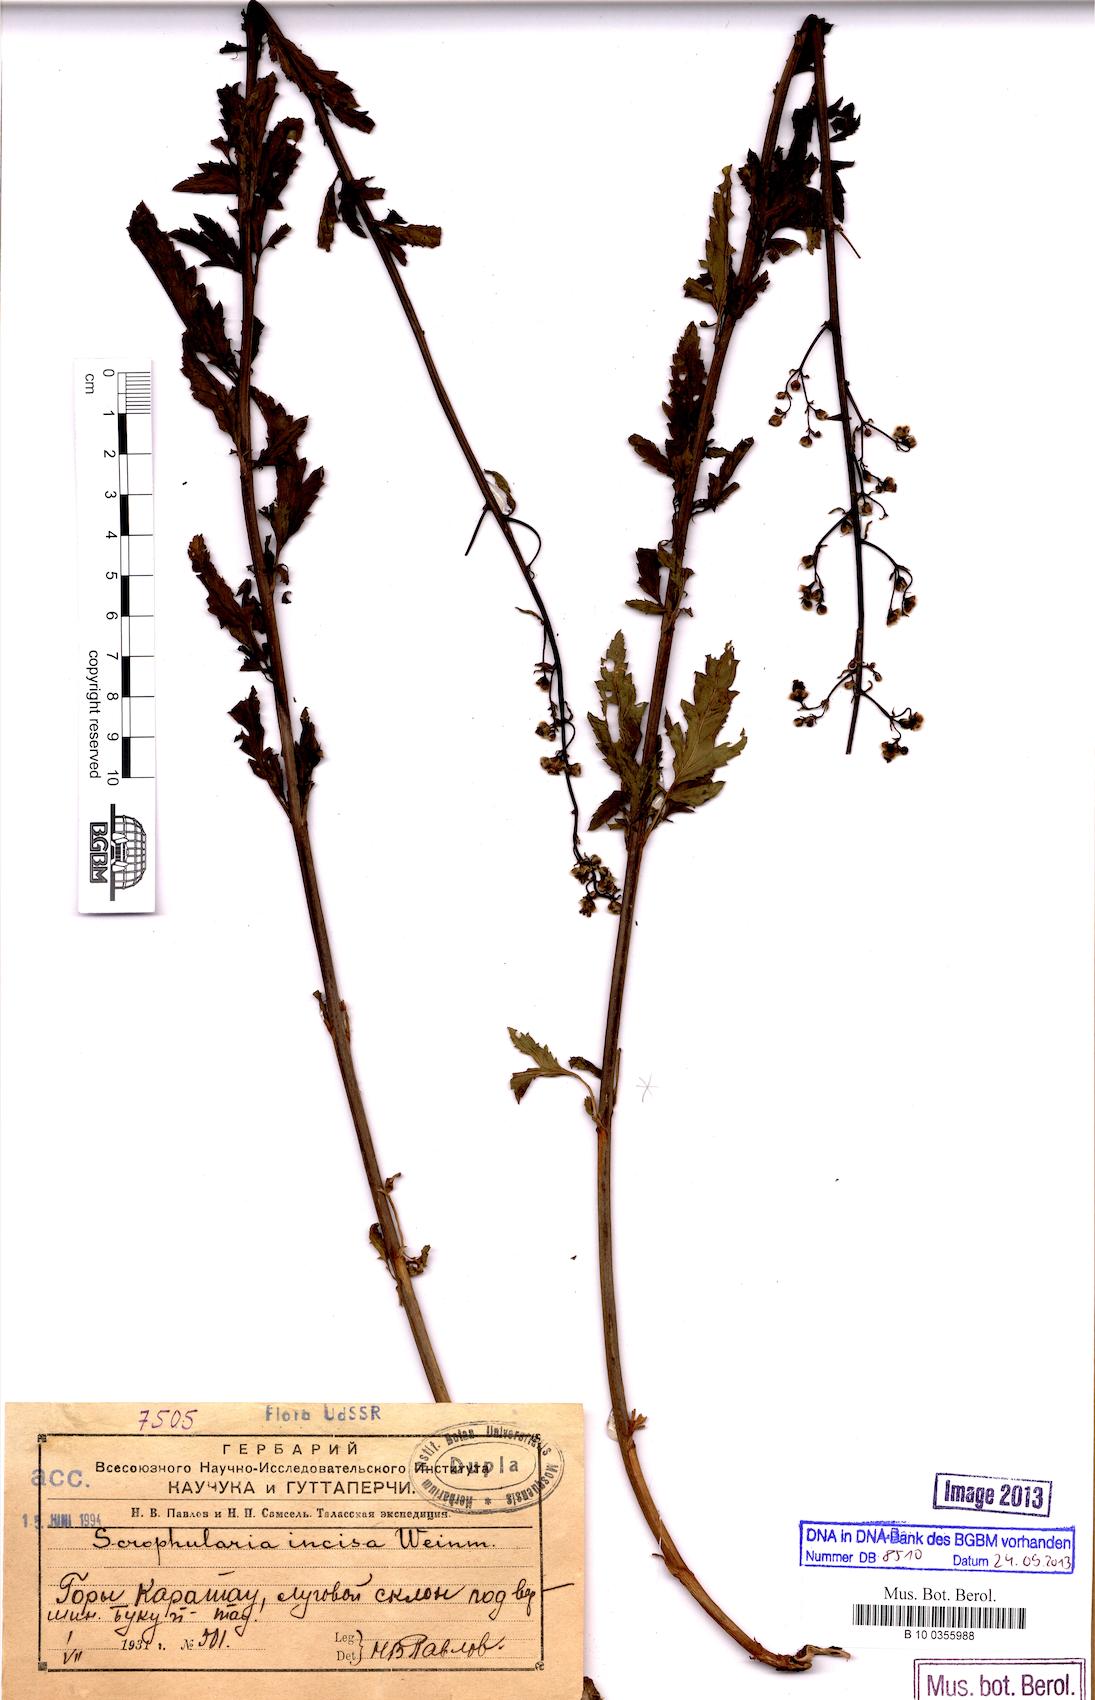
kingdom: Plantae
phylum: Tracheophyta
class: Magnoliopsida
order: Lamiales
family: Scrophulariaceae
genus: Scrophularia
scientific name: Scrophularia incisa
